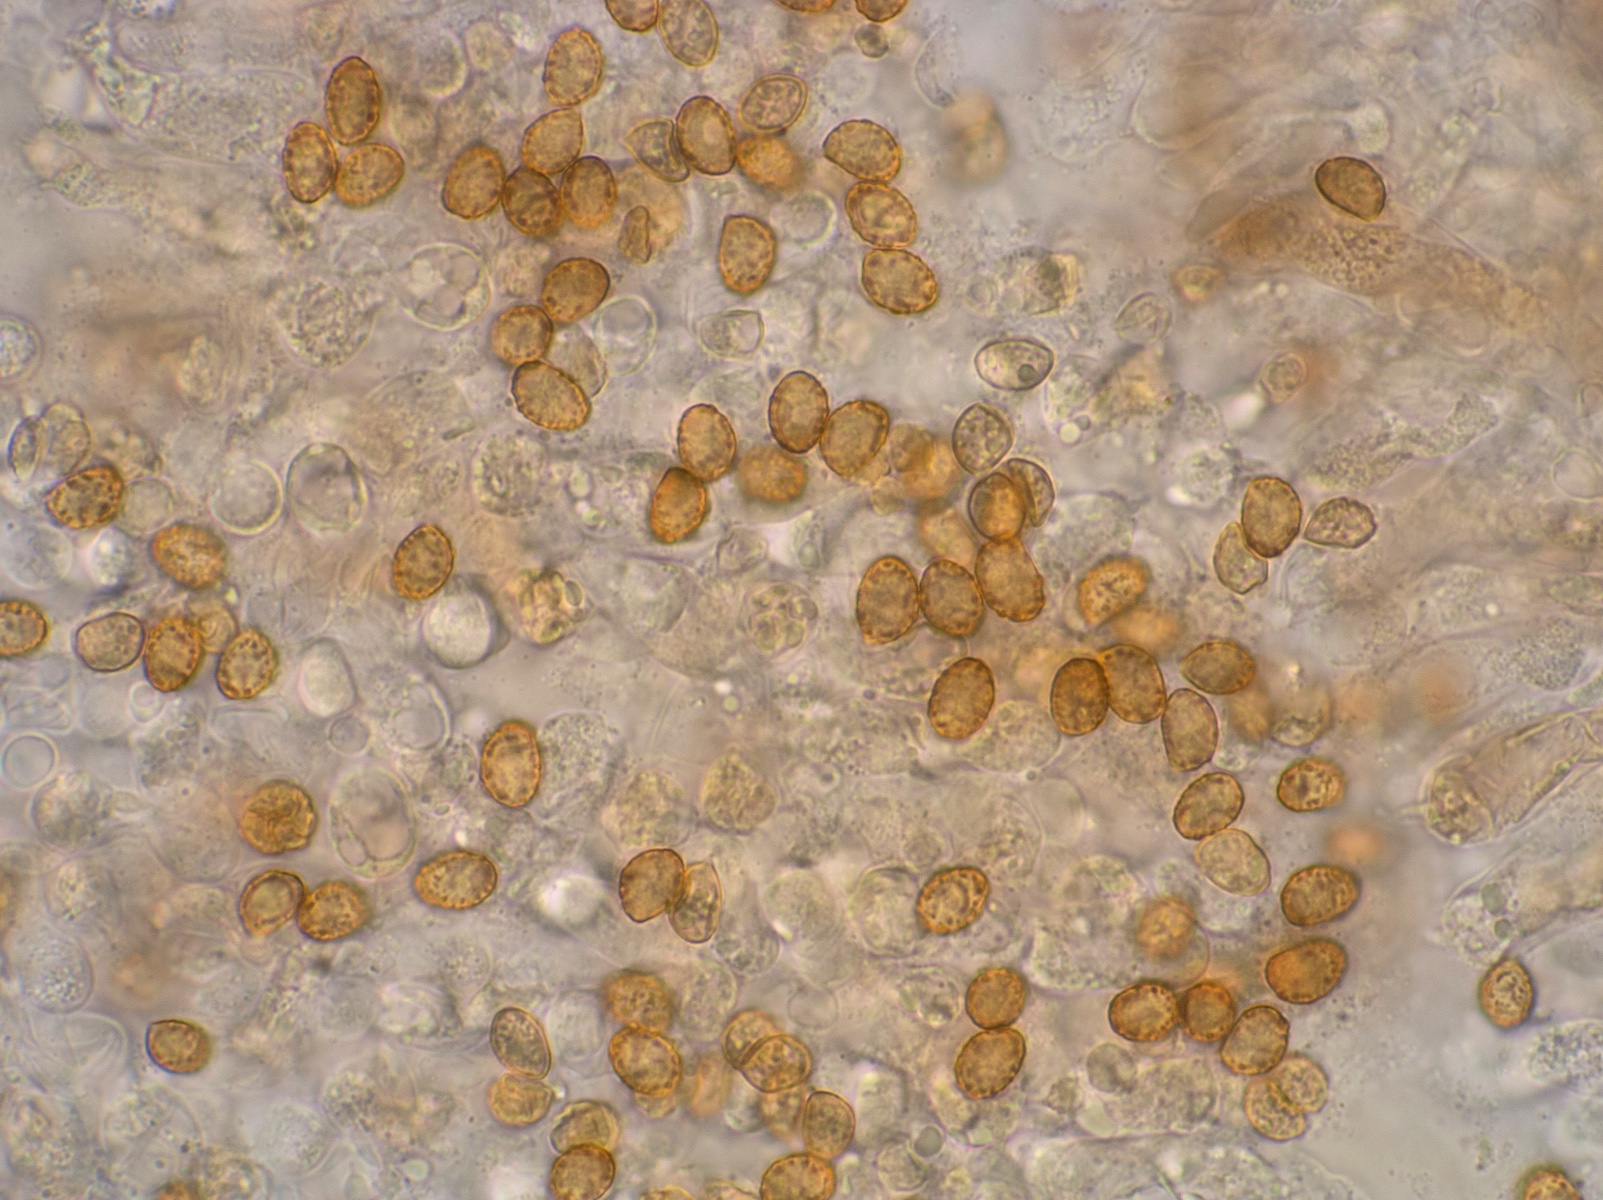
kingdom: Fungi
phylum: Basidiomycota
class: Agaricomycetes
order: Agaricales
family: Cortinariaceae
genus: Cortinarius
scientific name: Cortinarius fuscogracilescens
